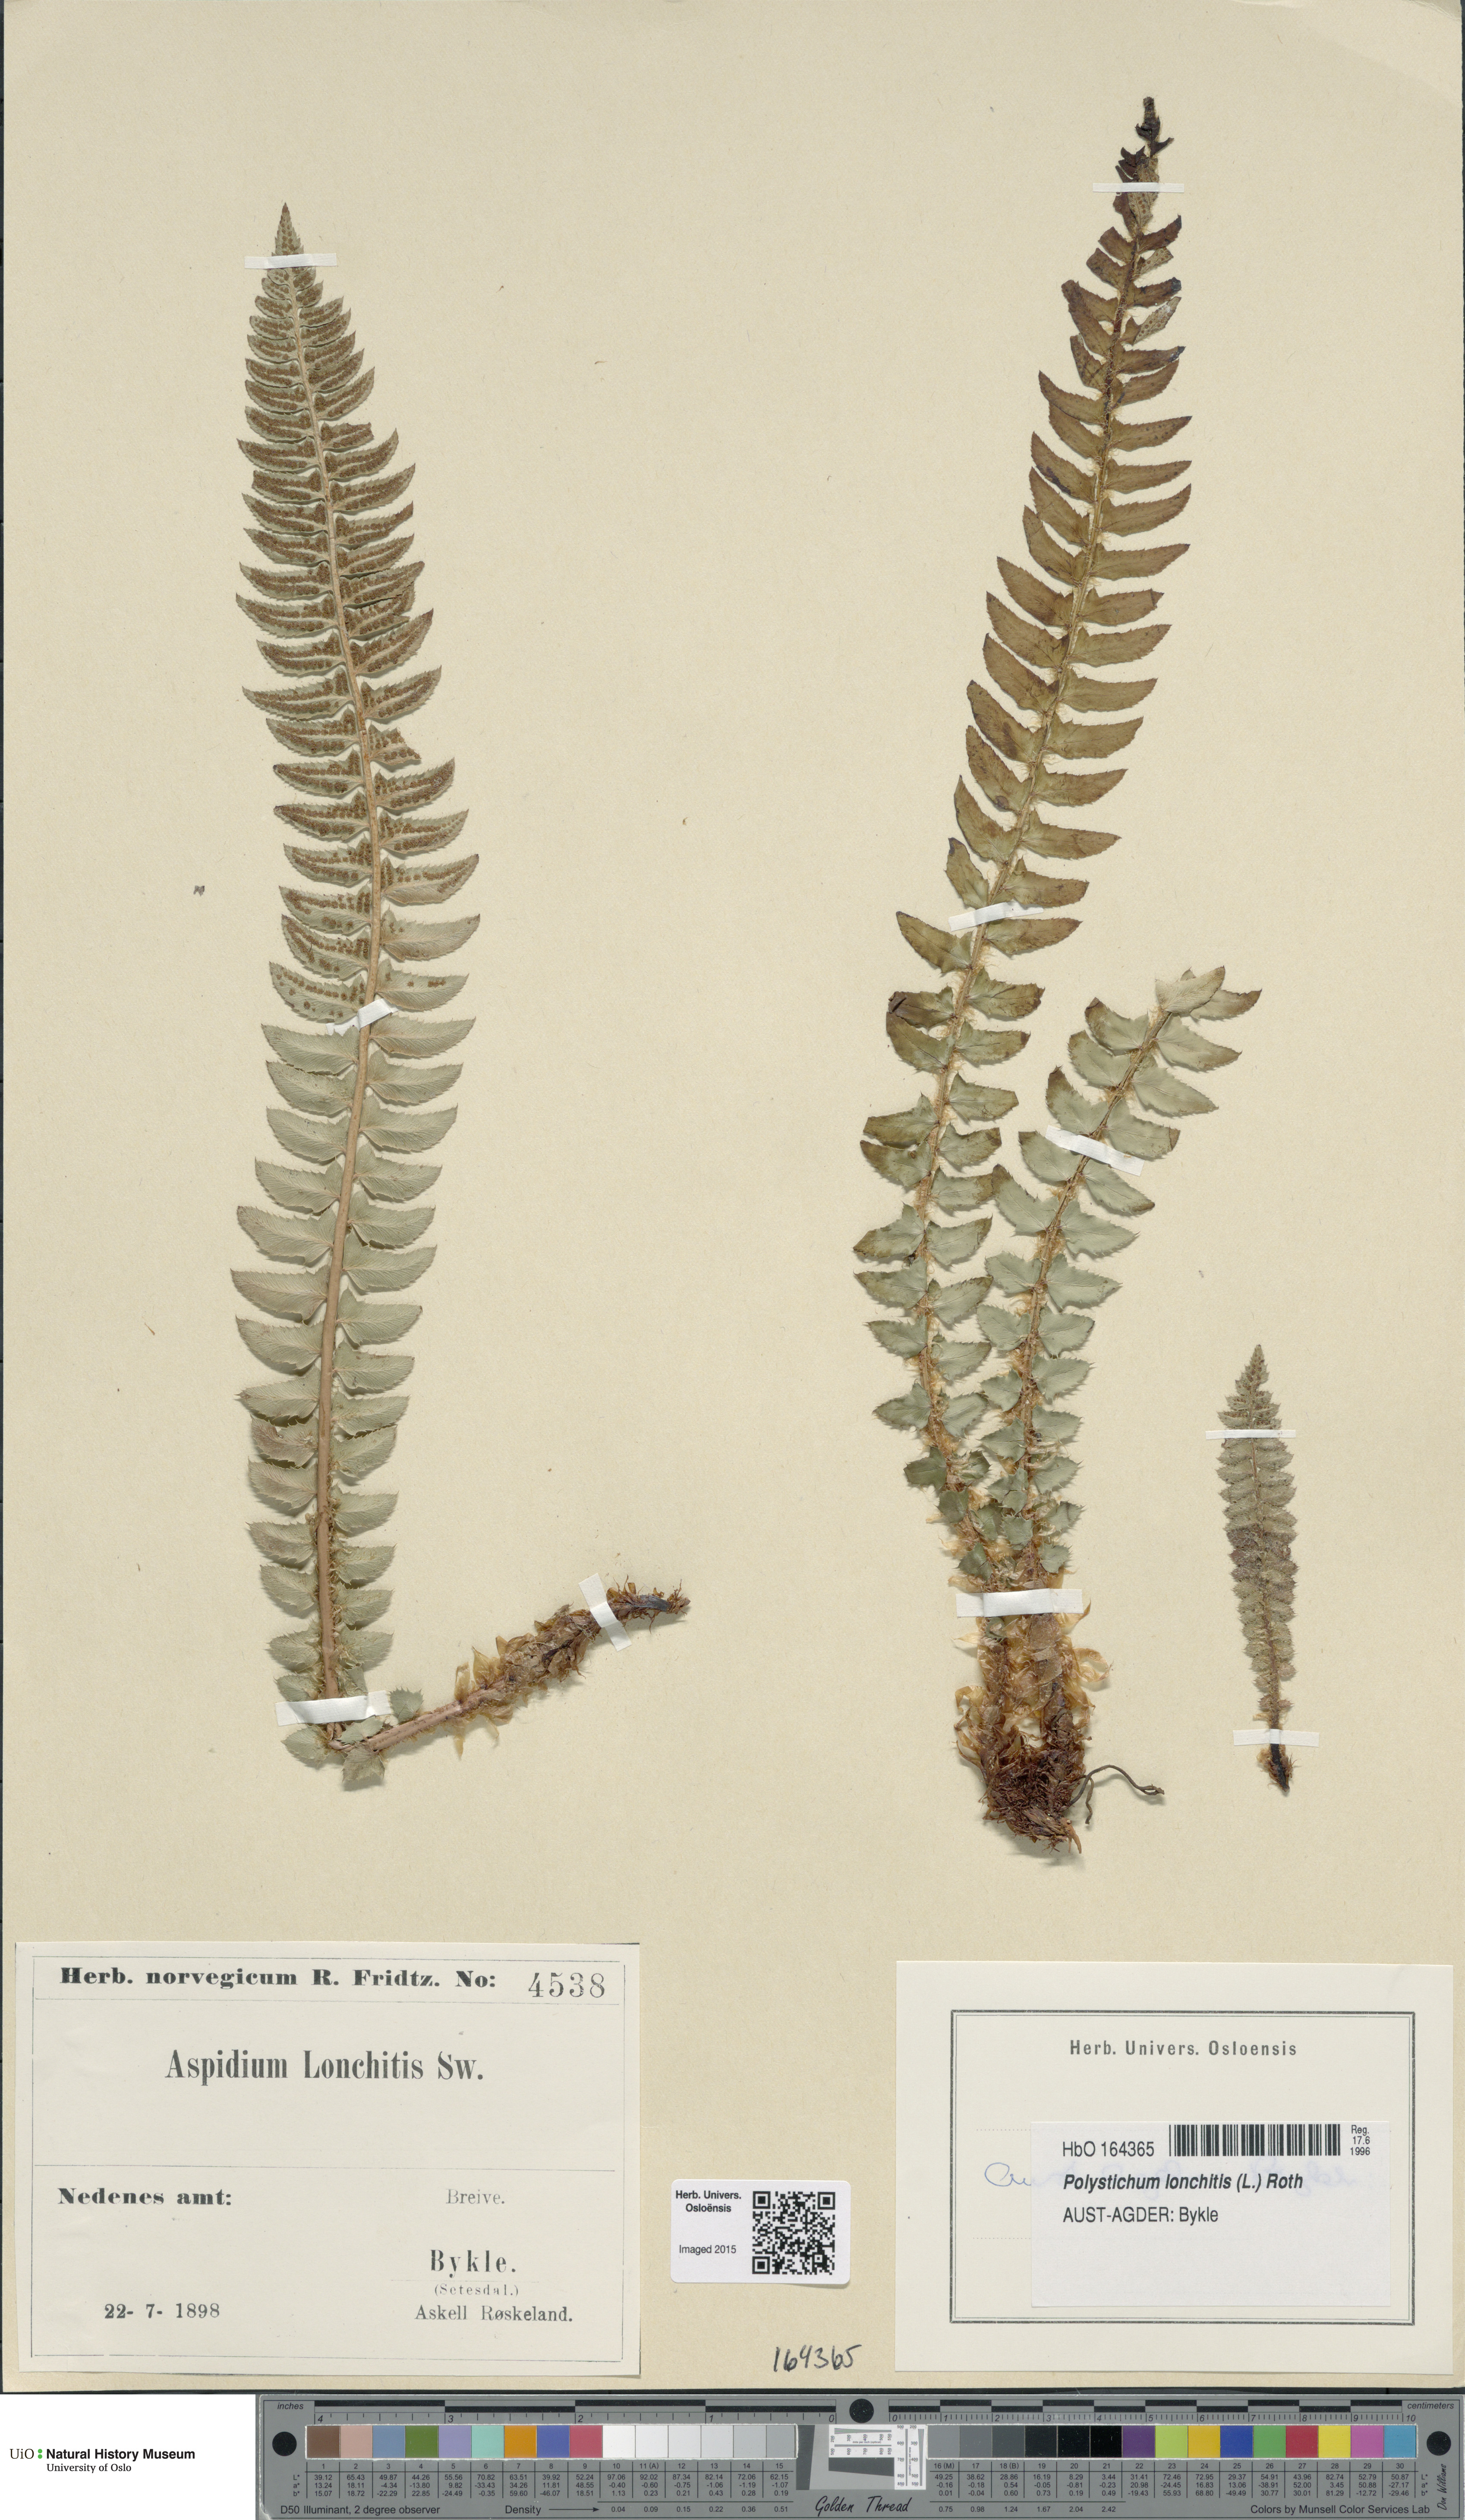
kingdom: Plantae
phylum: Tracheophyta
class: Polypodiopsida
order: Polypodiales
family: Dryopteridaceae
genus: Polystichum
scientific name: Polystichum lonchitis
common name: Holly fern
